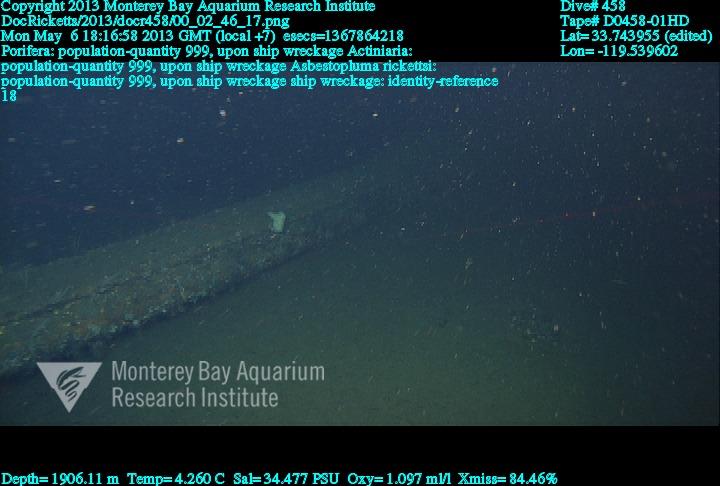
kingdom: Animalia
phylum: Porifera
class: Demospongiae
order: Poecilosclerida
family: Cladorhizidae
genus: Asbestopluma
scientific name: Asbestopluma rickettsi
